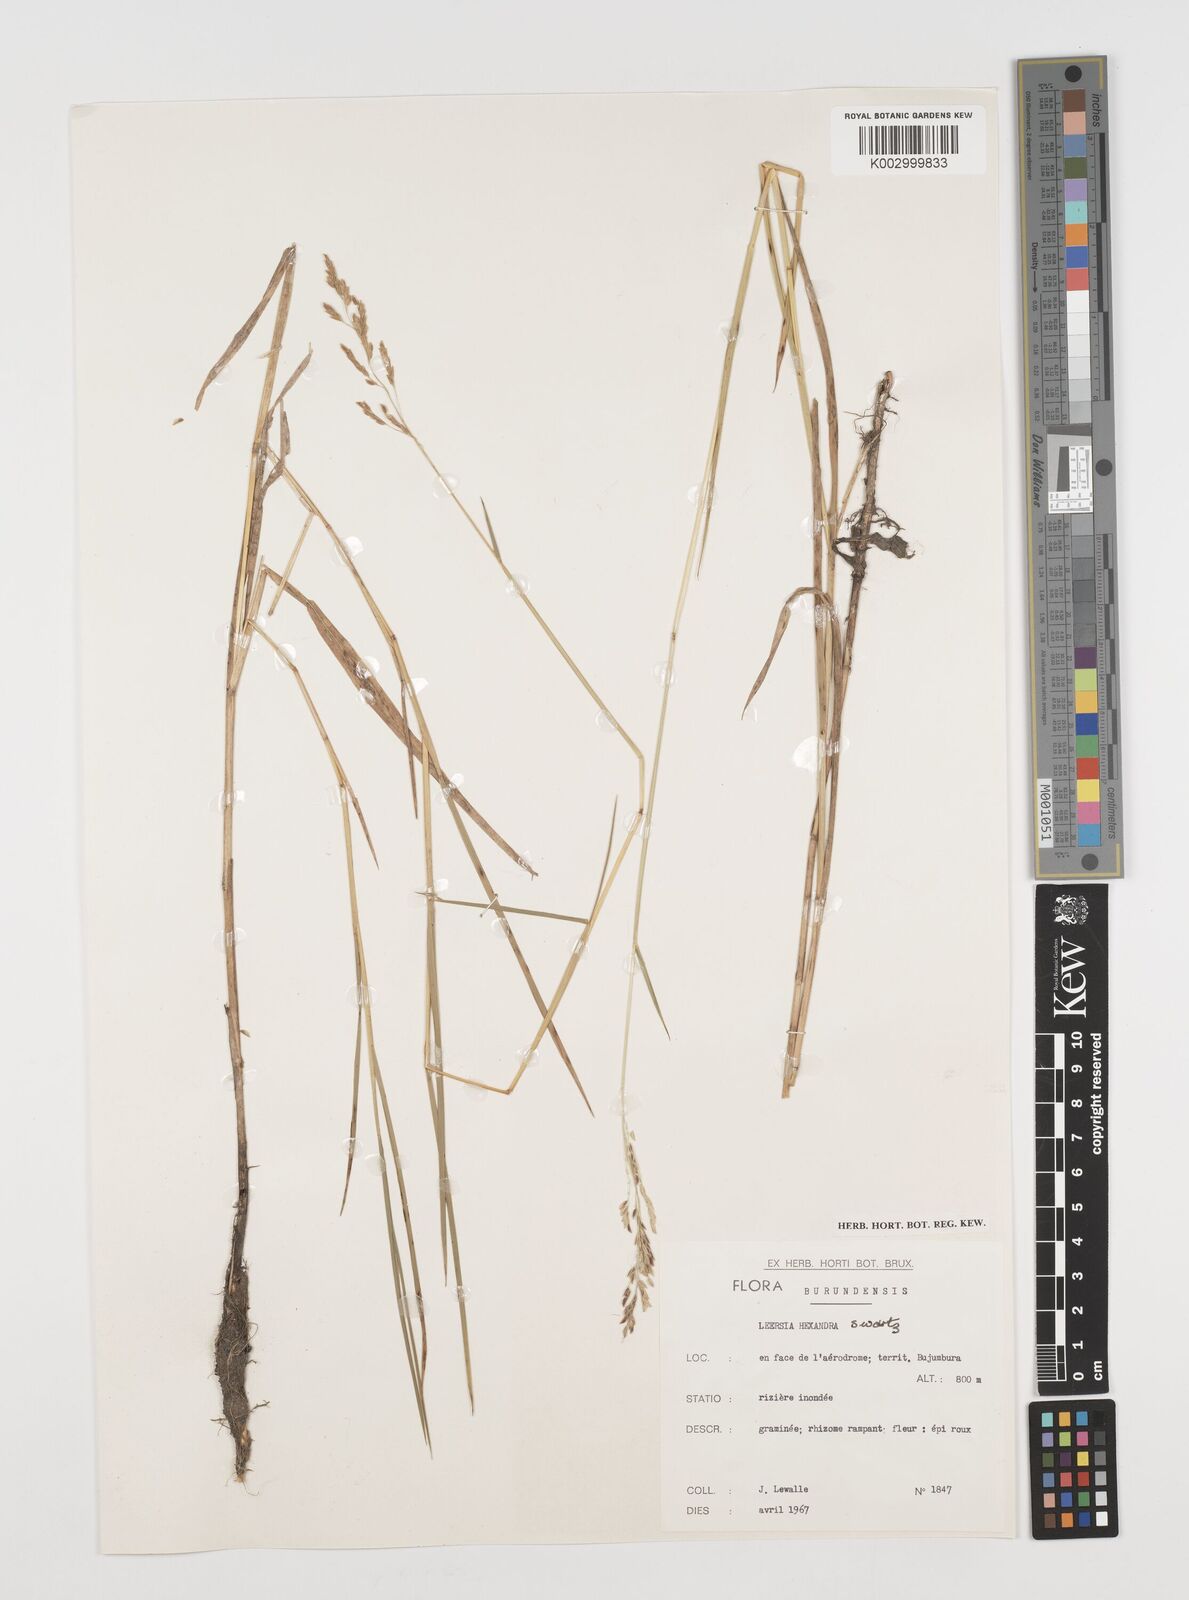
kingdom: Plantae
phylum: Tracheophyta
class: Liliopsida
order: Poales
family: Poaceae
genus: Leersia
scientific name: Leersia hexandra
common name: Southern cut grass
